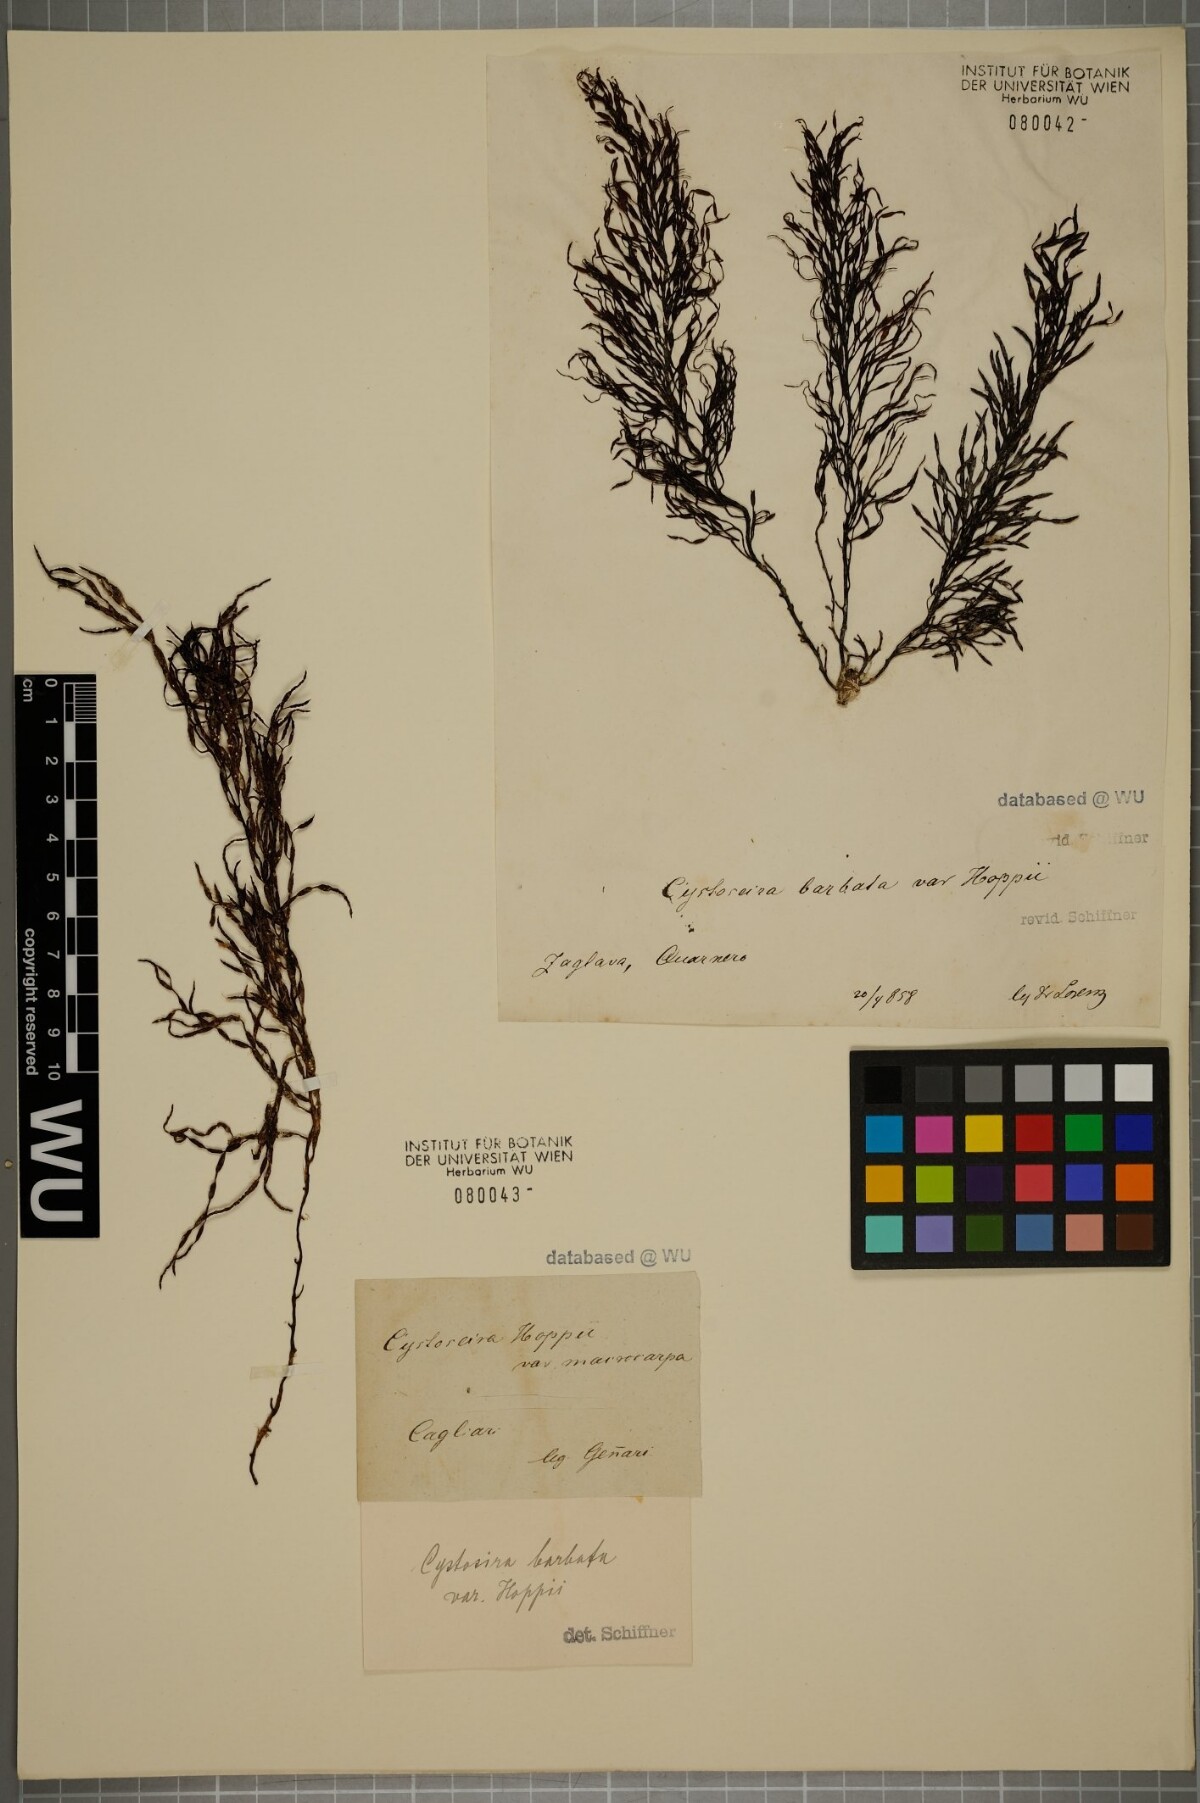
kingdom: Chromista
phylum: Ochrophyta
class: Phaeophyceae
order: Fucales
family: Sargassaceae
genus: Cystoseira
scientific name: Cystoseira Gongolaria barbata
